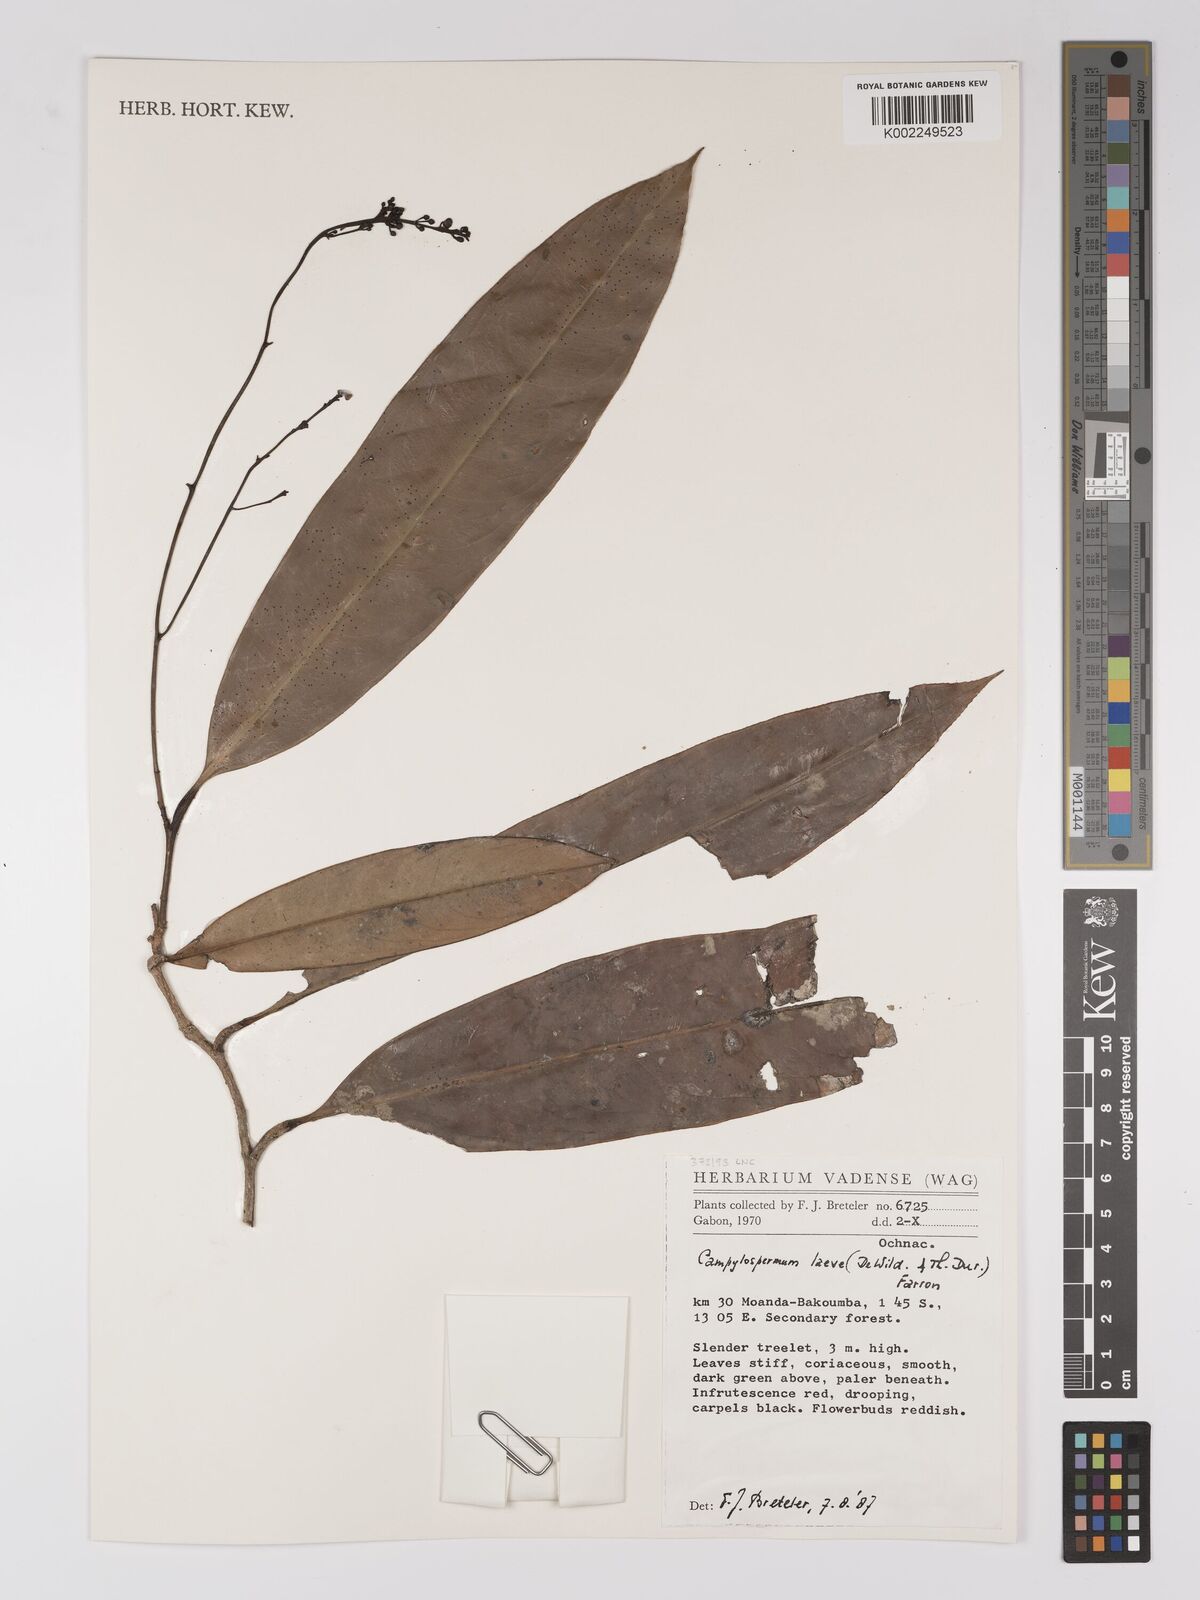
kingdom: Plantae
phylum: Tracheophyta
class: Magnoliopsida
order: Malpighiales
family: Ochnaceae
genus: Campylospermum
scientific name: Campylospermum laeve
